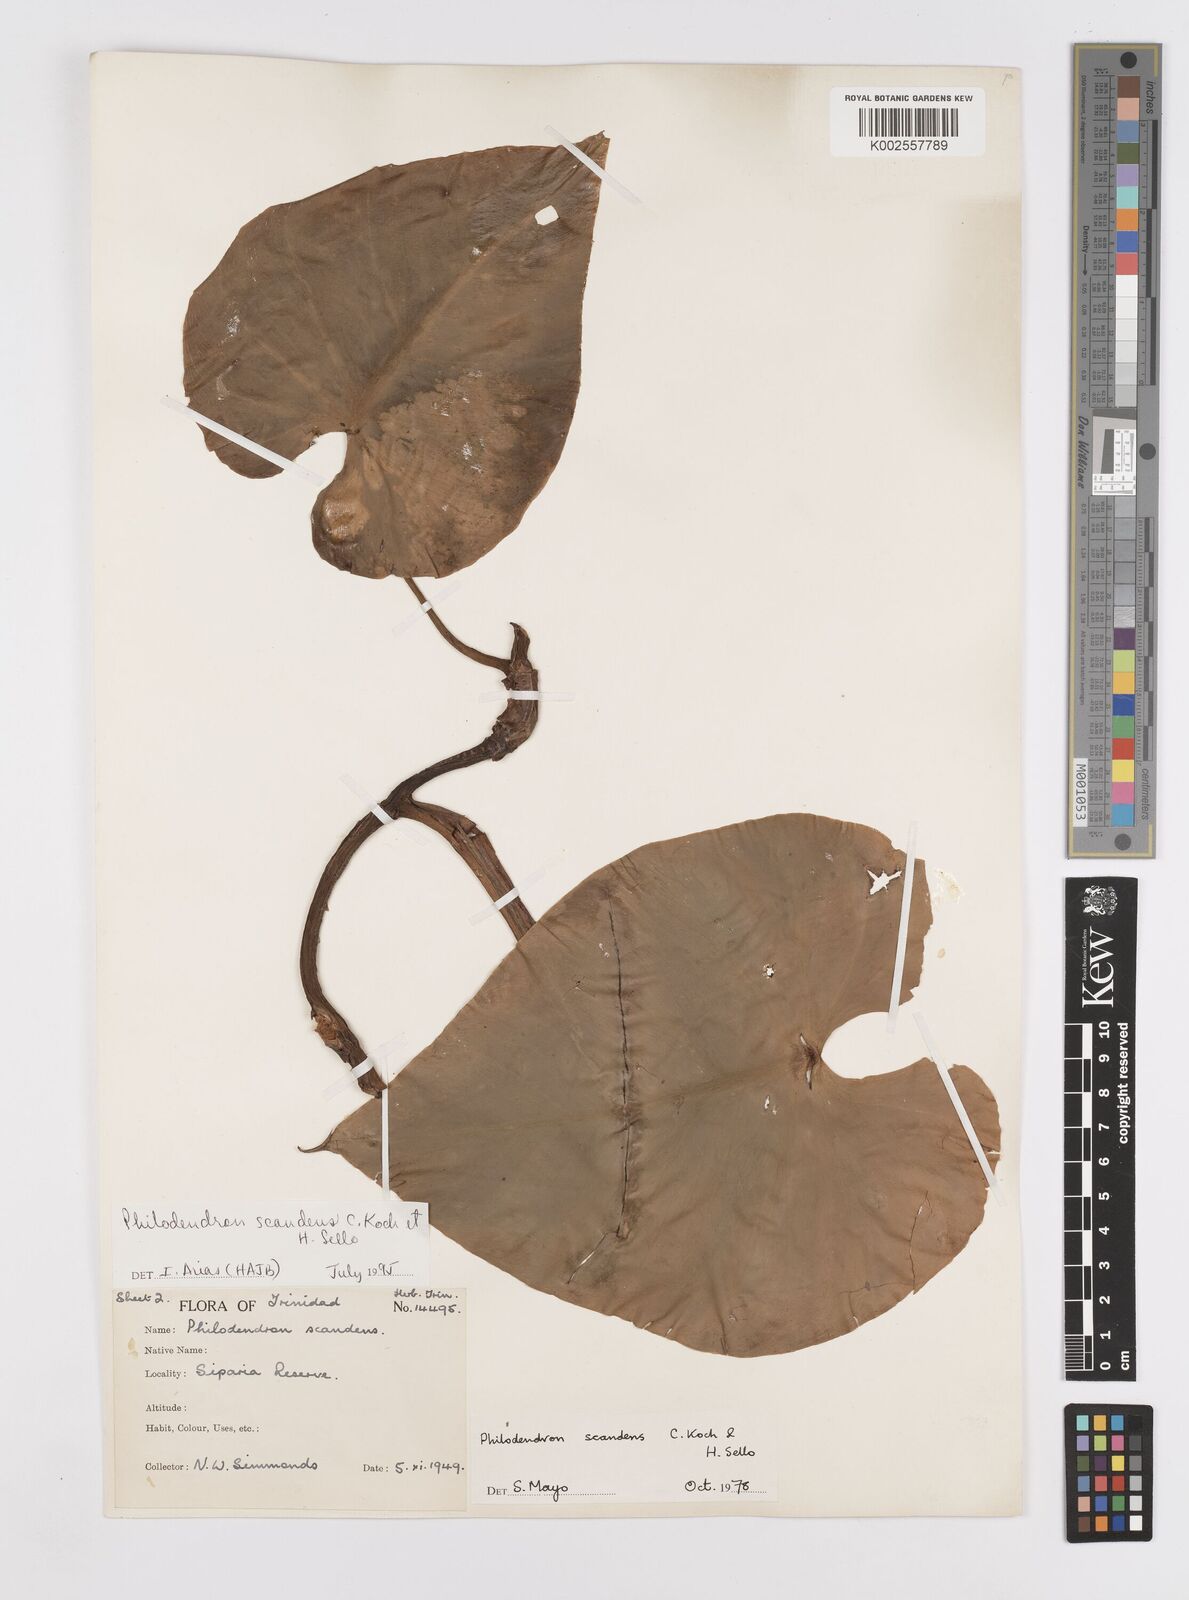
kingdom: Plantae
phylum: Tracheophyta
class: Liliopsida
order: Alismatales
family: Araceae
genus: Philodendron
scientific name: Philodendron hederaceum
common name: Vilevine
